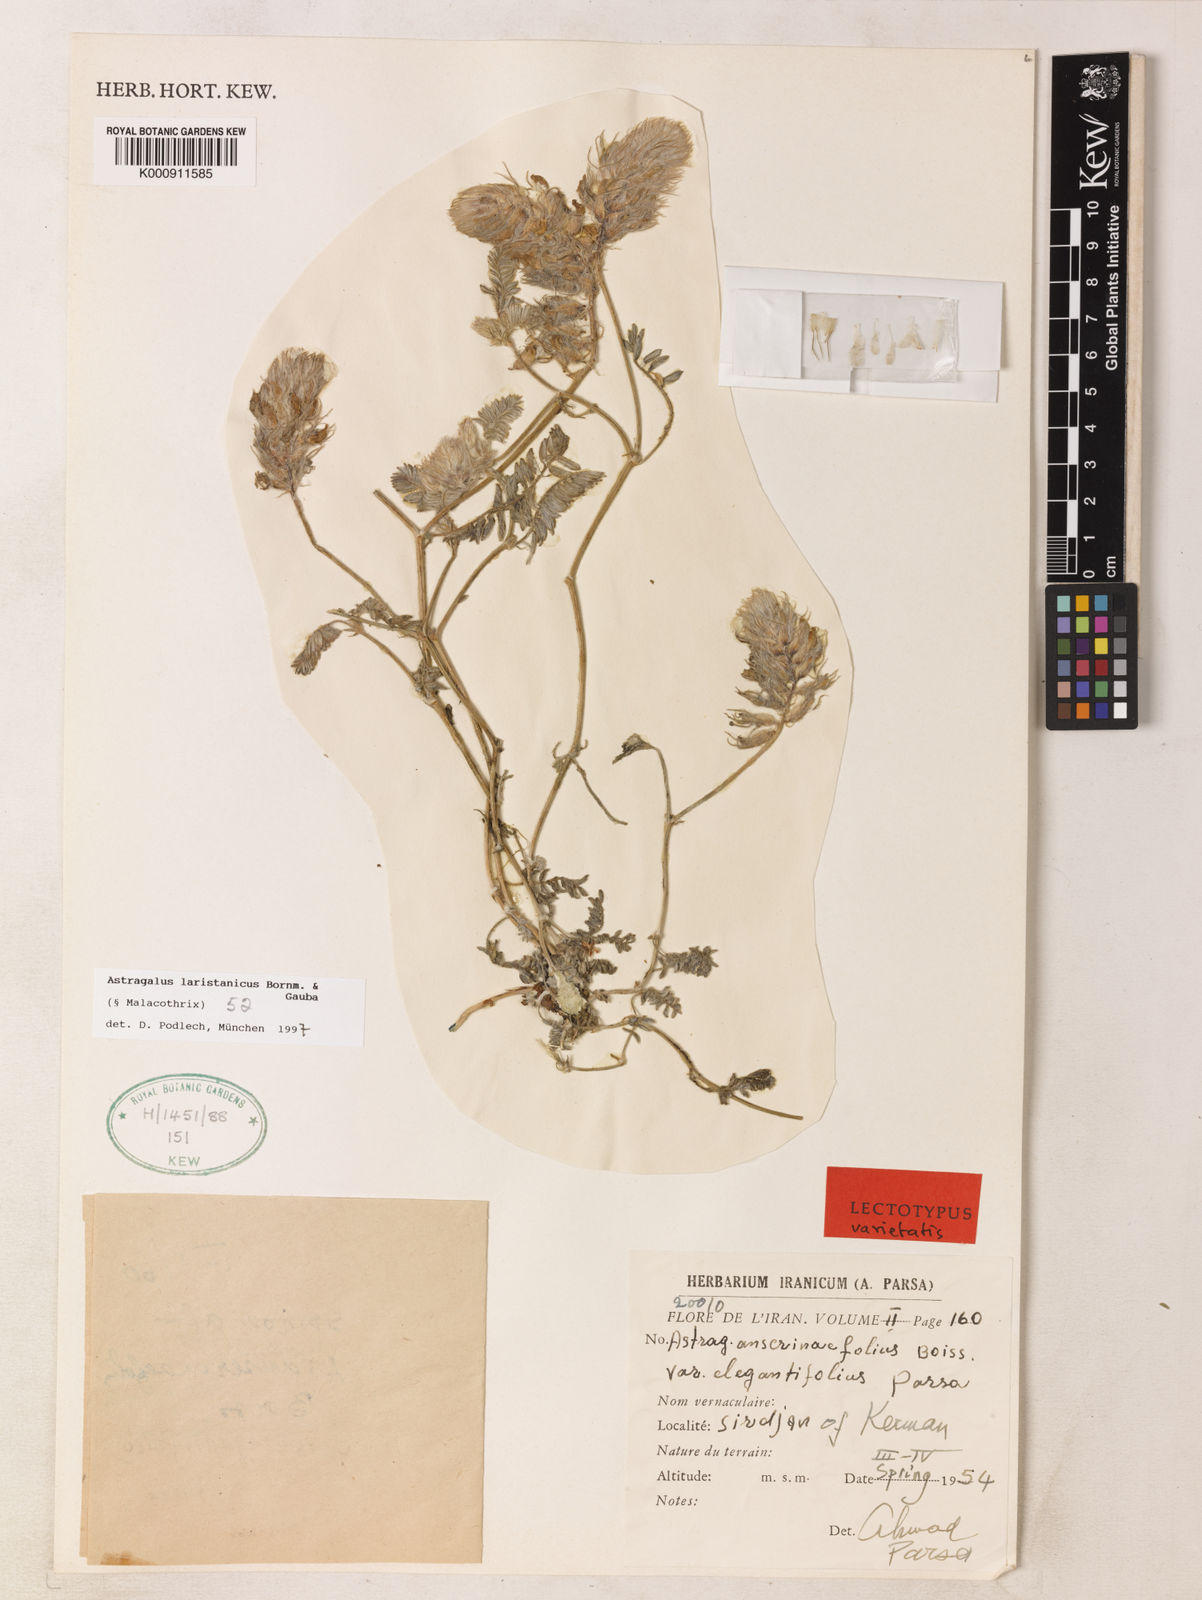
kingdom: Plantae
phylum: Tracheophyta
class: Magnoliopsida
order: Fabales
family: Fabaceae
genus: Astragalus
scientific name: Astragalus laristanicus
